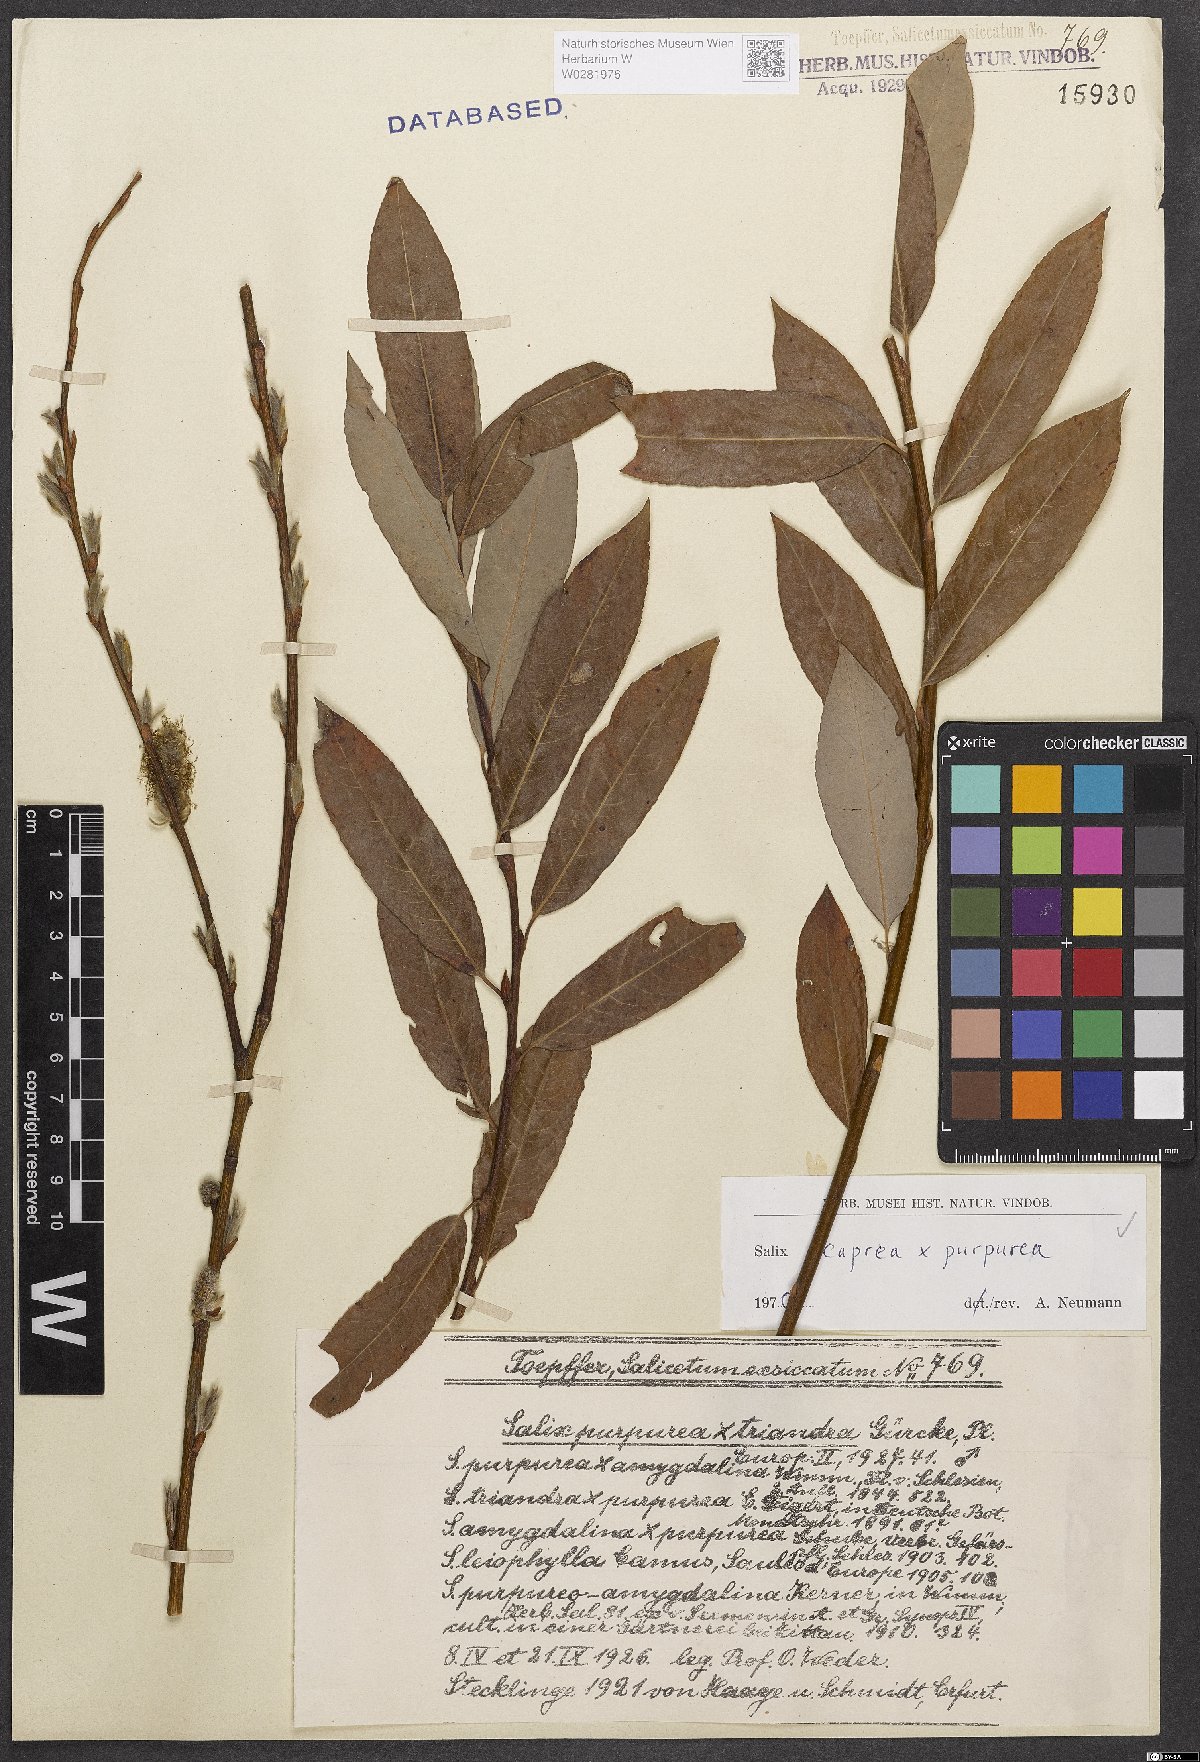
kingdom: Plantae
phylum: Tracheophyta
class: Magnoliopsida
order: Malpighiales
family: Salicaceae
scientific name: Salicaceae
